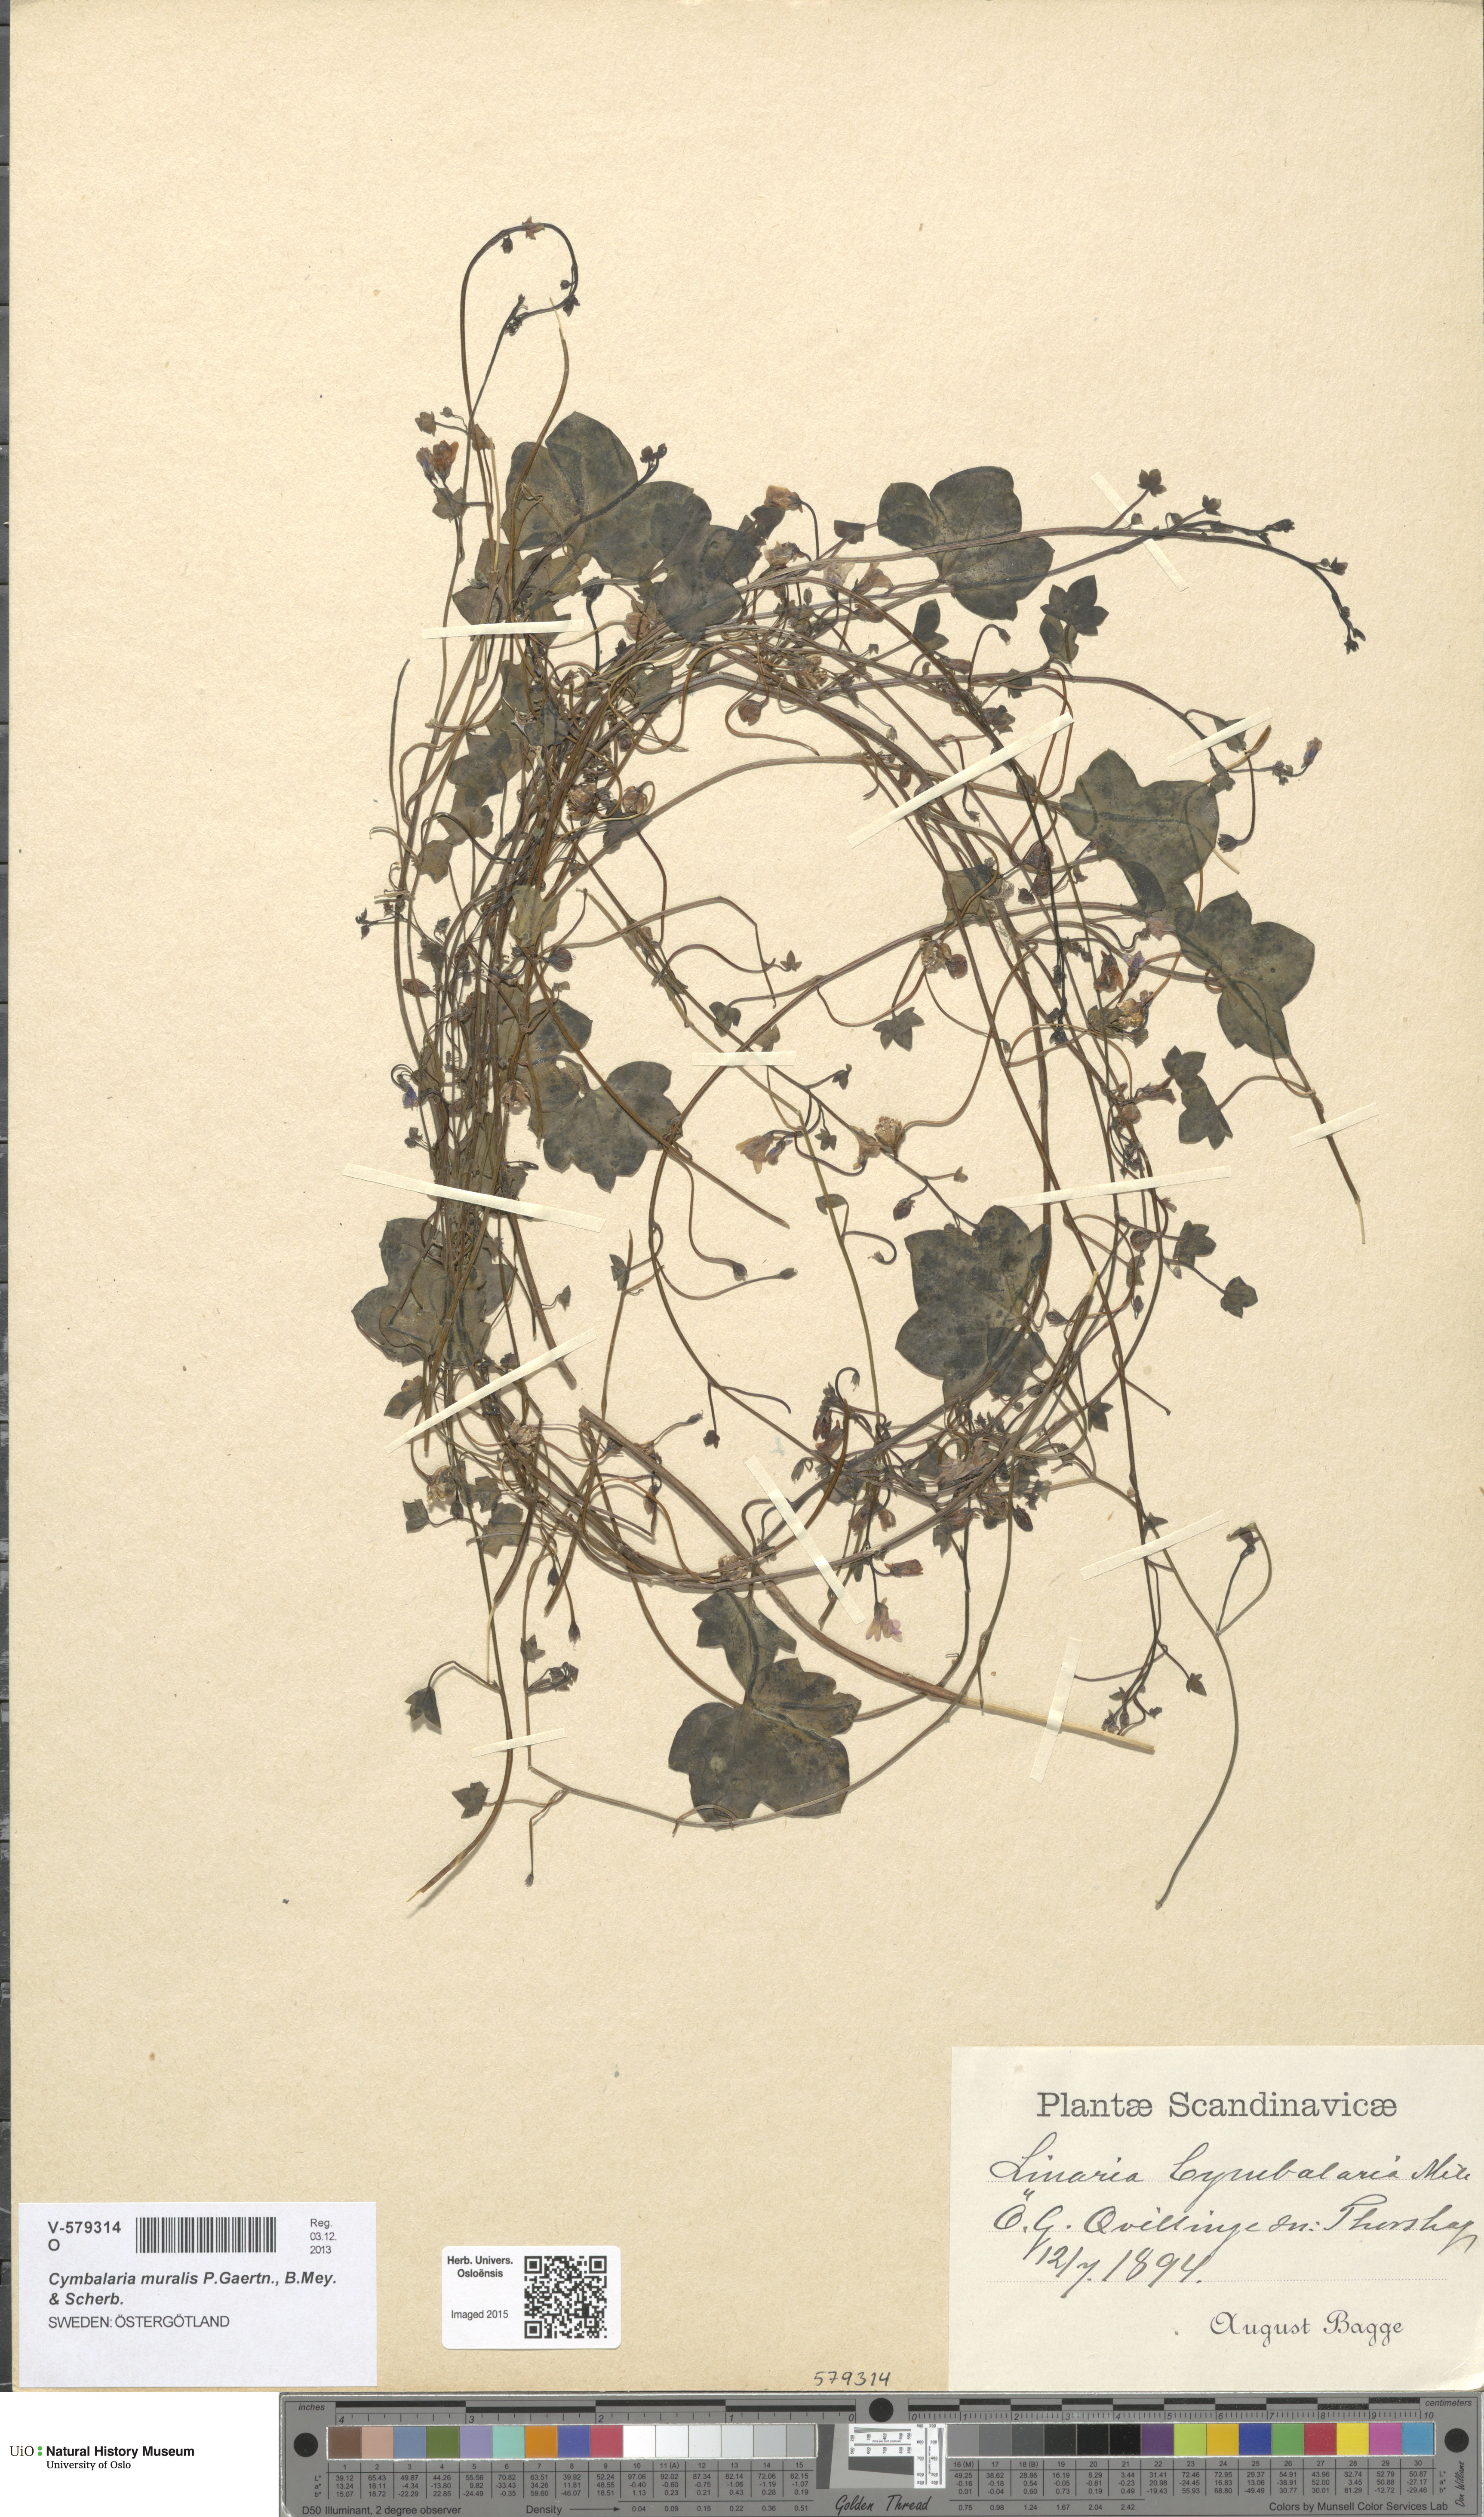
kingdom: Plantae
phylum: Tracheophyta
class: Magnoliopsida
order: Lamiales
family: Plantaginaceae
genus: Cymbalaria
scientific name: Cymbalaria muralis
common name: Ivy-leaved toadflax
